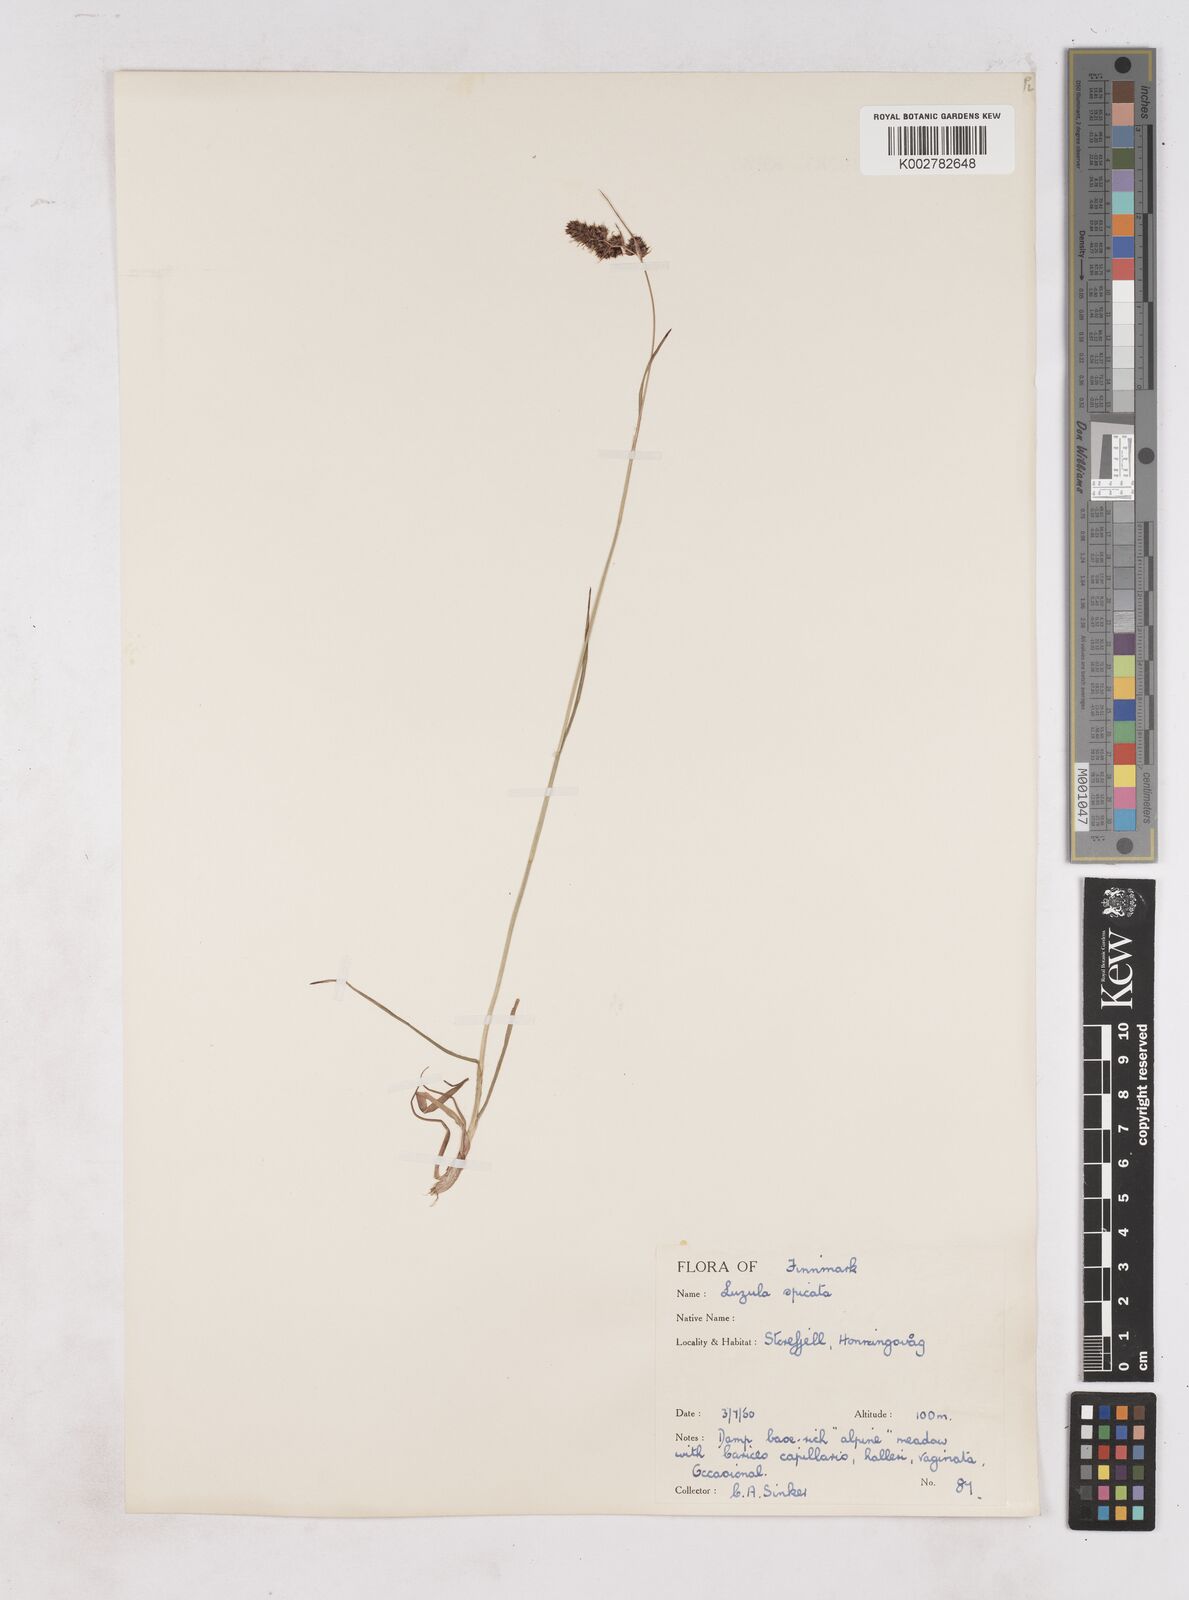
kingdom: Plantae
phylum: Tracheophyta
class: Liliopsida
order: Poales
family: Juncaceae
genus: Luzula
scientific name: Luzula spicata
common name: Spiked wood-rush
